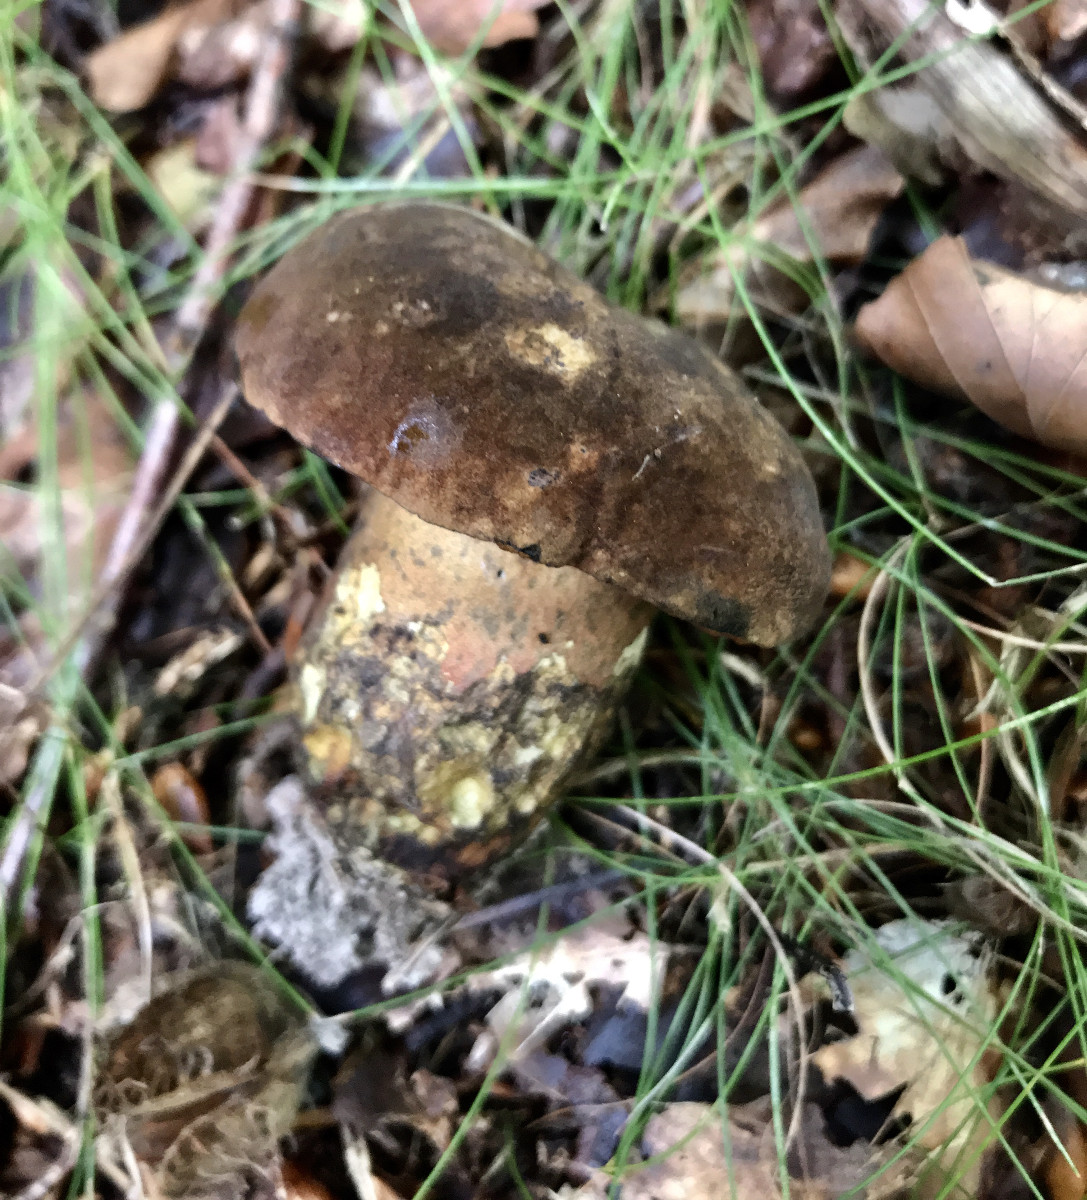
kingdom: Fungi
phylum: Basidiomycota
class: Agaricomycetes
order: Boletales
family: Boletaceae
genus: Neoboletus
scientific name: Neoboletus erythropus
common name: punktstokket indigorørhat
